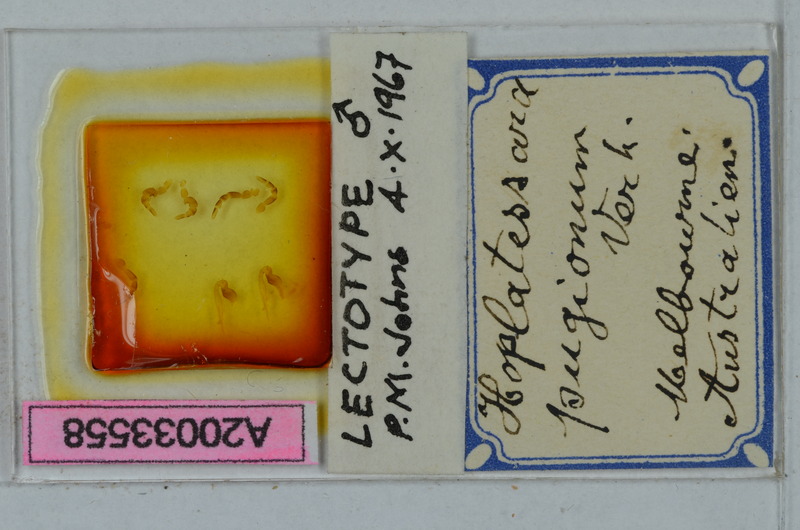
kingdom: Animalia
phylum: Arthropoda
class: Diplopoda
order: Polydesmida
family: Paradoxosomatidae
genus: Hoplatessara
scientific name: Hoplatessara pugiona
